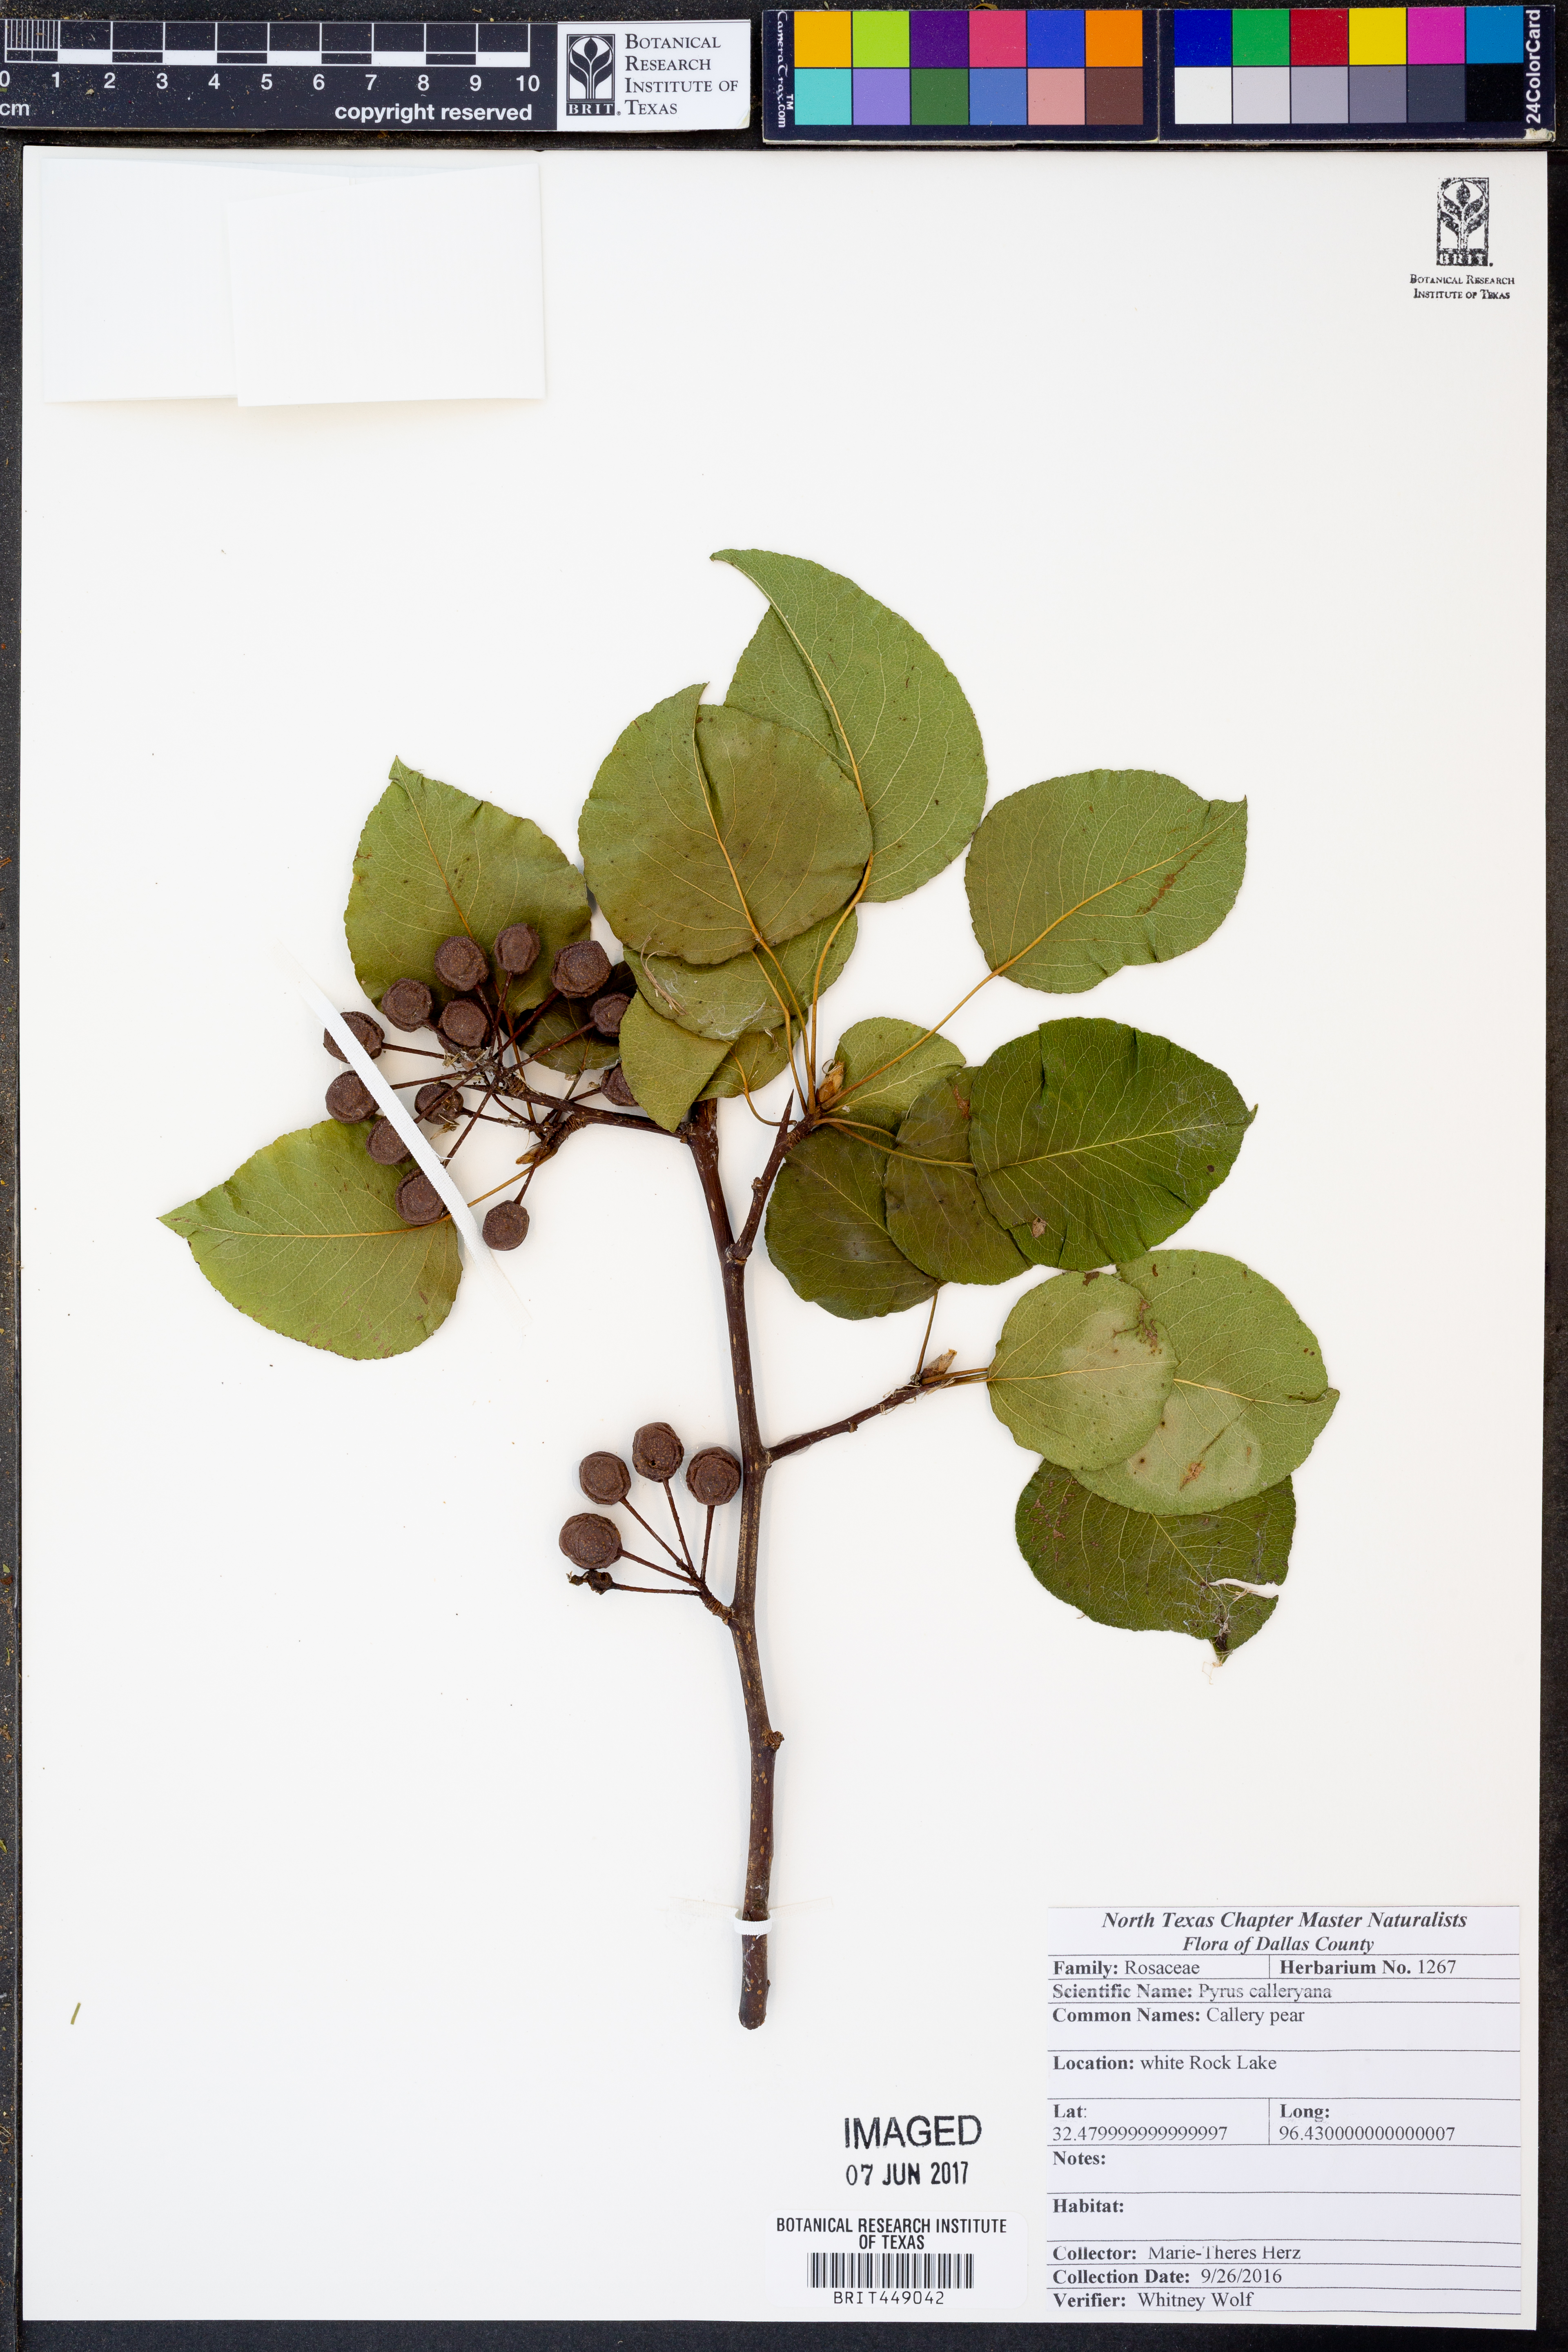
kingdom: Plantae
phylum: Tracheophyta
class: Magnoliopsida
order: Rosales
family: Rosaceae
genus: Pyrus
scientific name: Pyrus calleryana
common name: Callery pear
